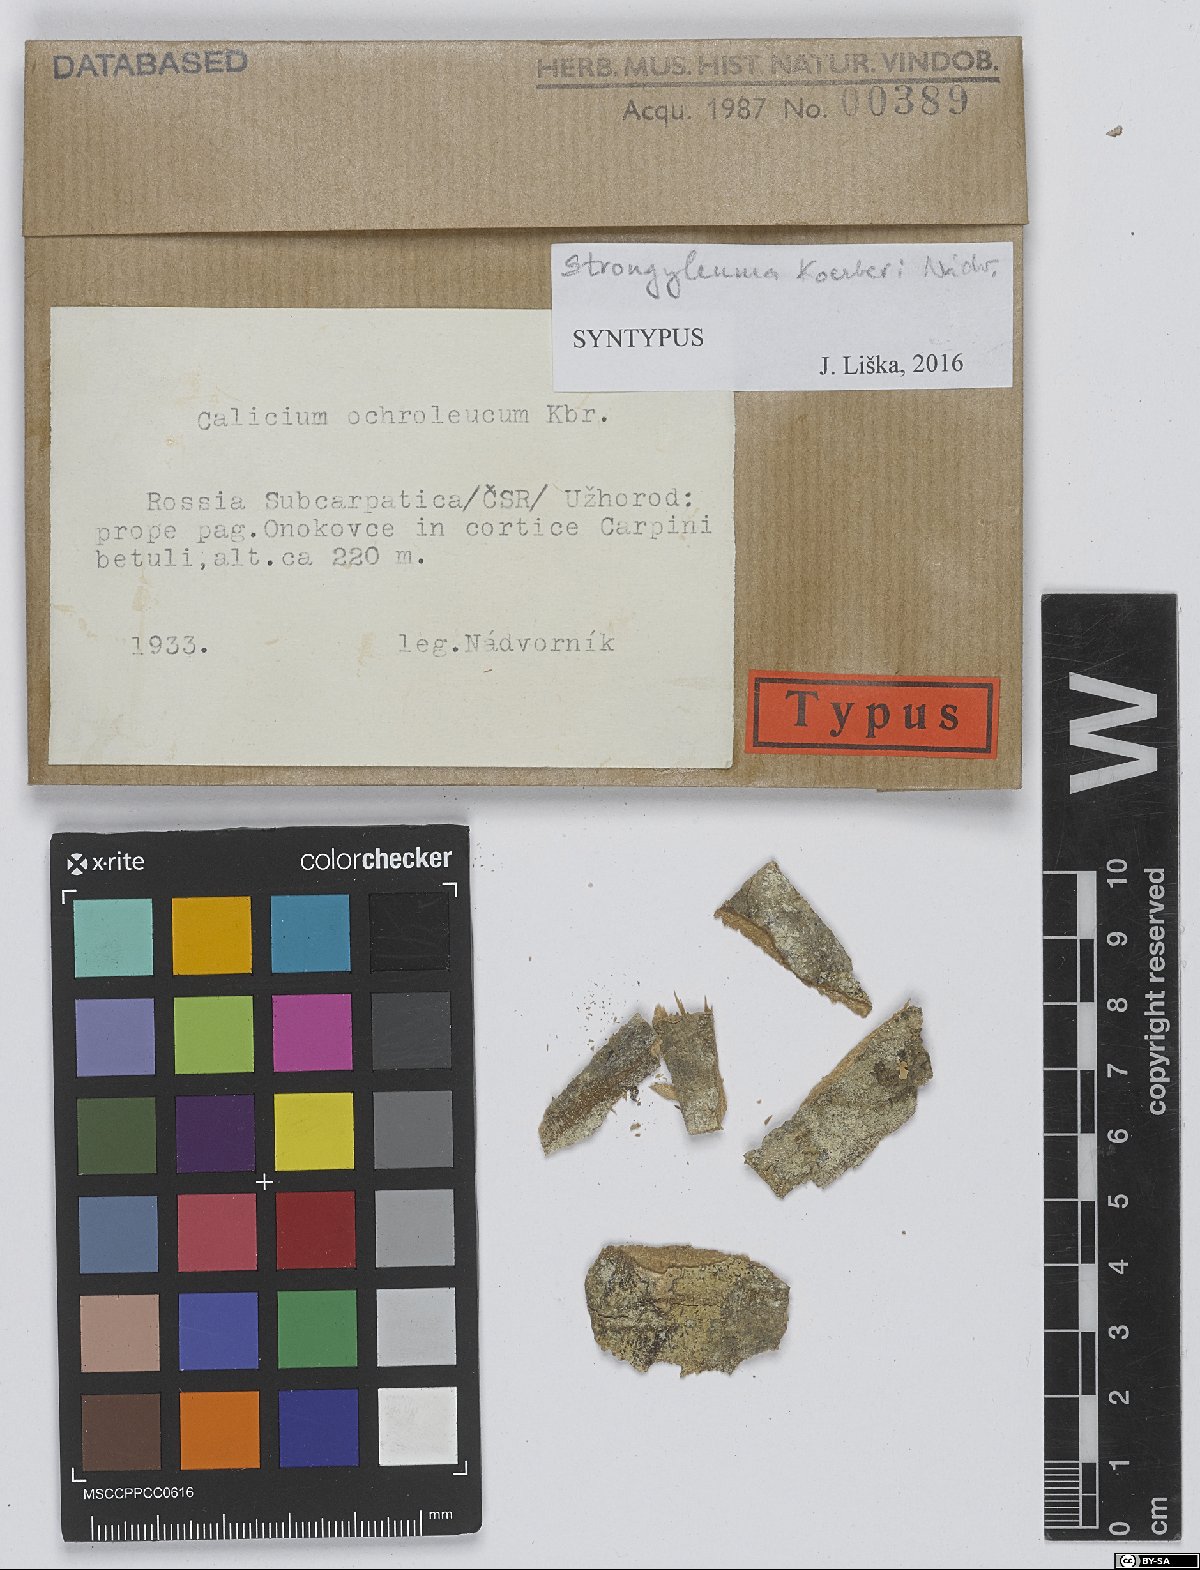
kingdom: Fungi
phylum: Ascomycota
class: Eurotiomycetes
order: Mycocaliciales
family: Mycocaliciaceae
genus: Chaenothecopsis
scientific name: Chaenothecopsis koerberi
